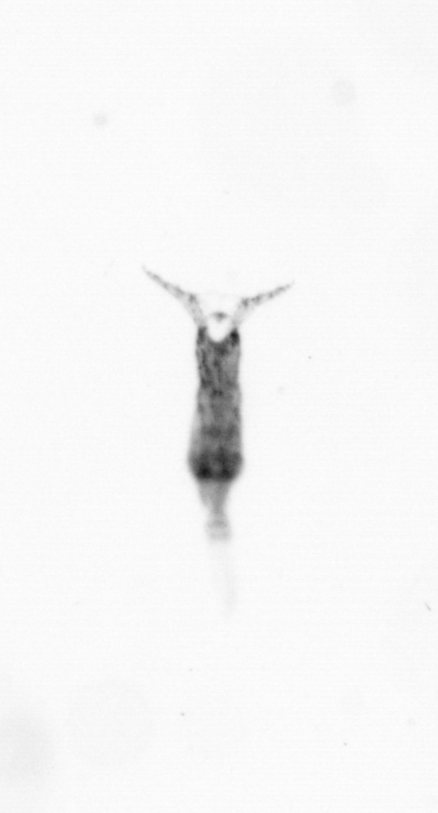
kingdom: Animalia
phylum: Arthropoda
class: Copepoda
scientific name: Copepoda
